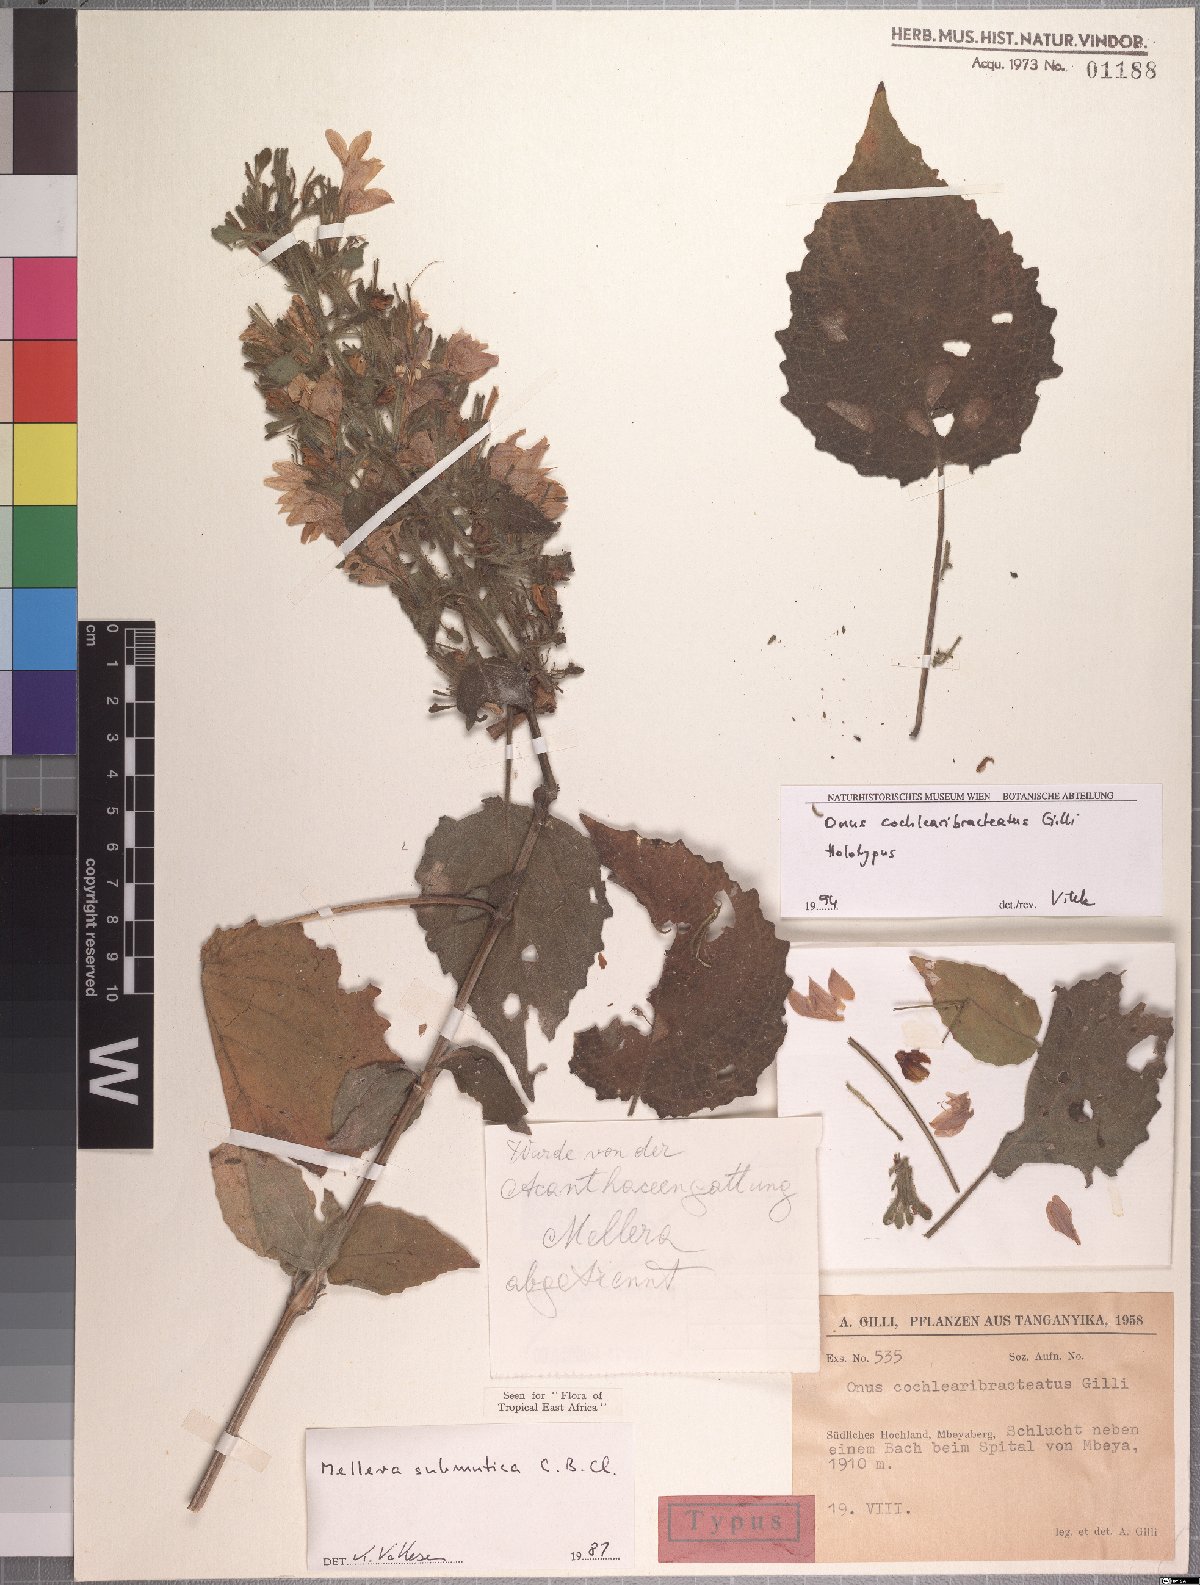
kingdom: Plantae
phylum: Tracheophyta
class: Magnoliopsida
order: Lamiales
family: Acanthaceae
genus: Mellera
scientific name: Mellera submutica
